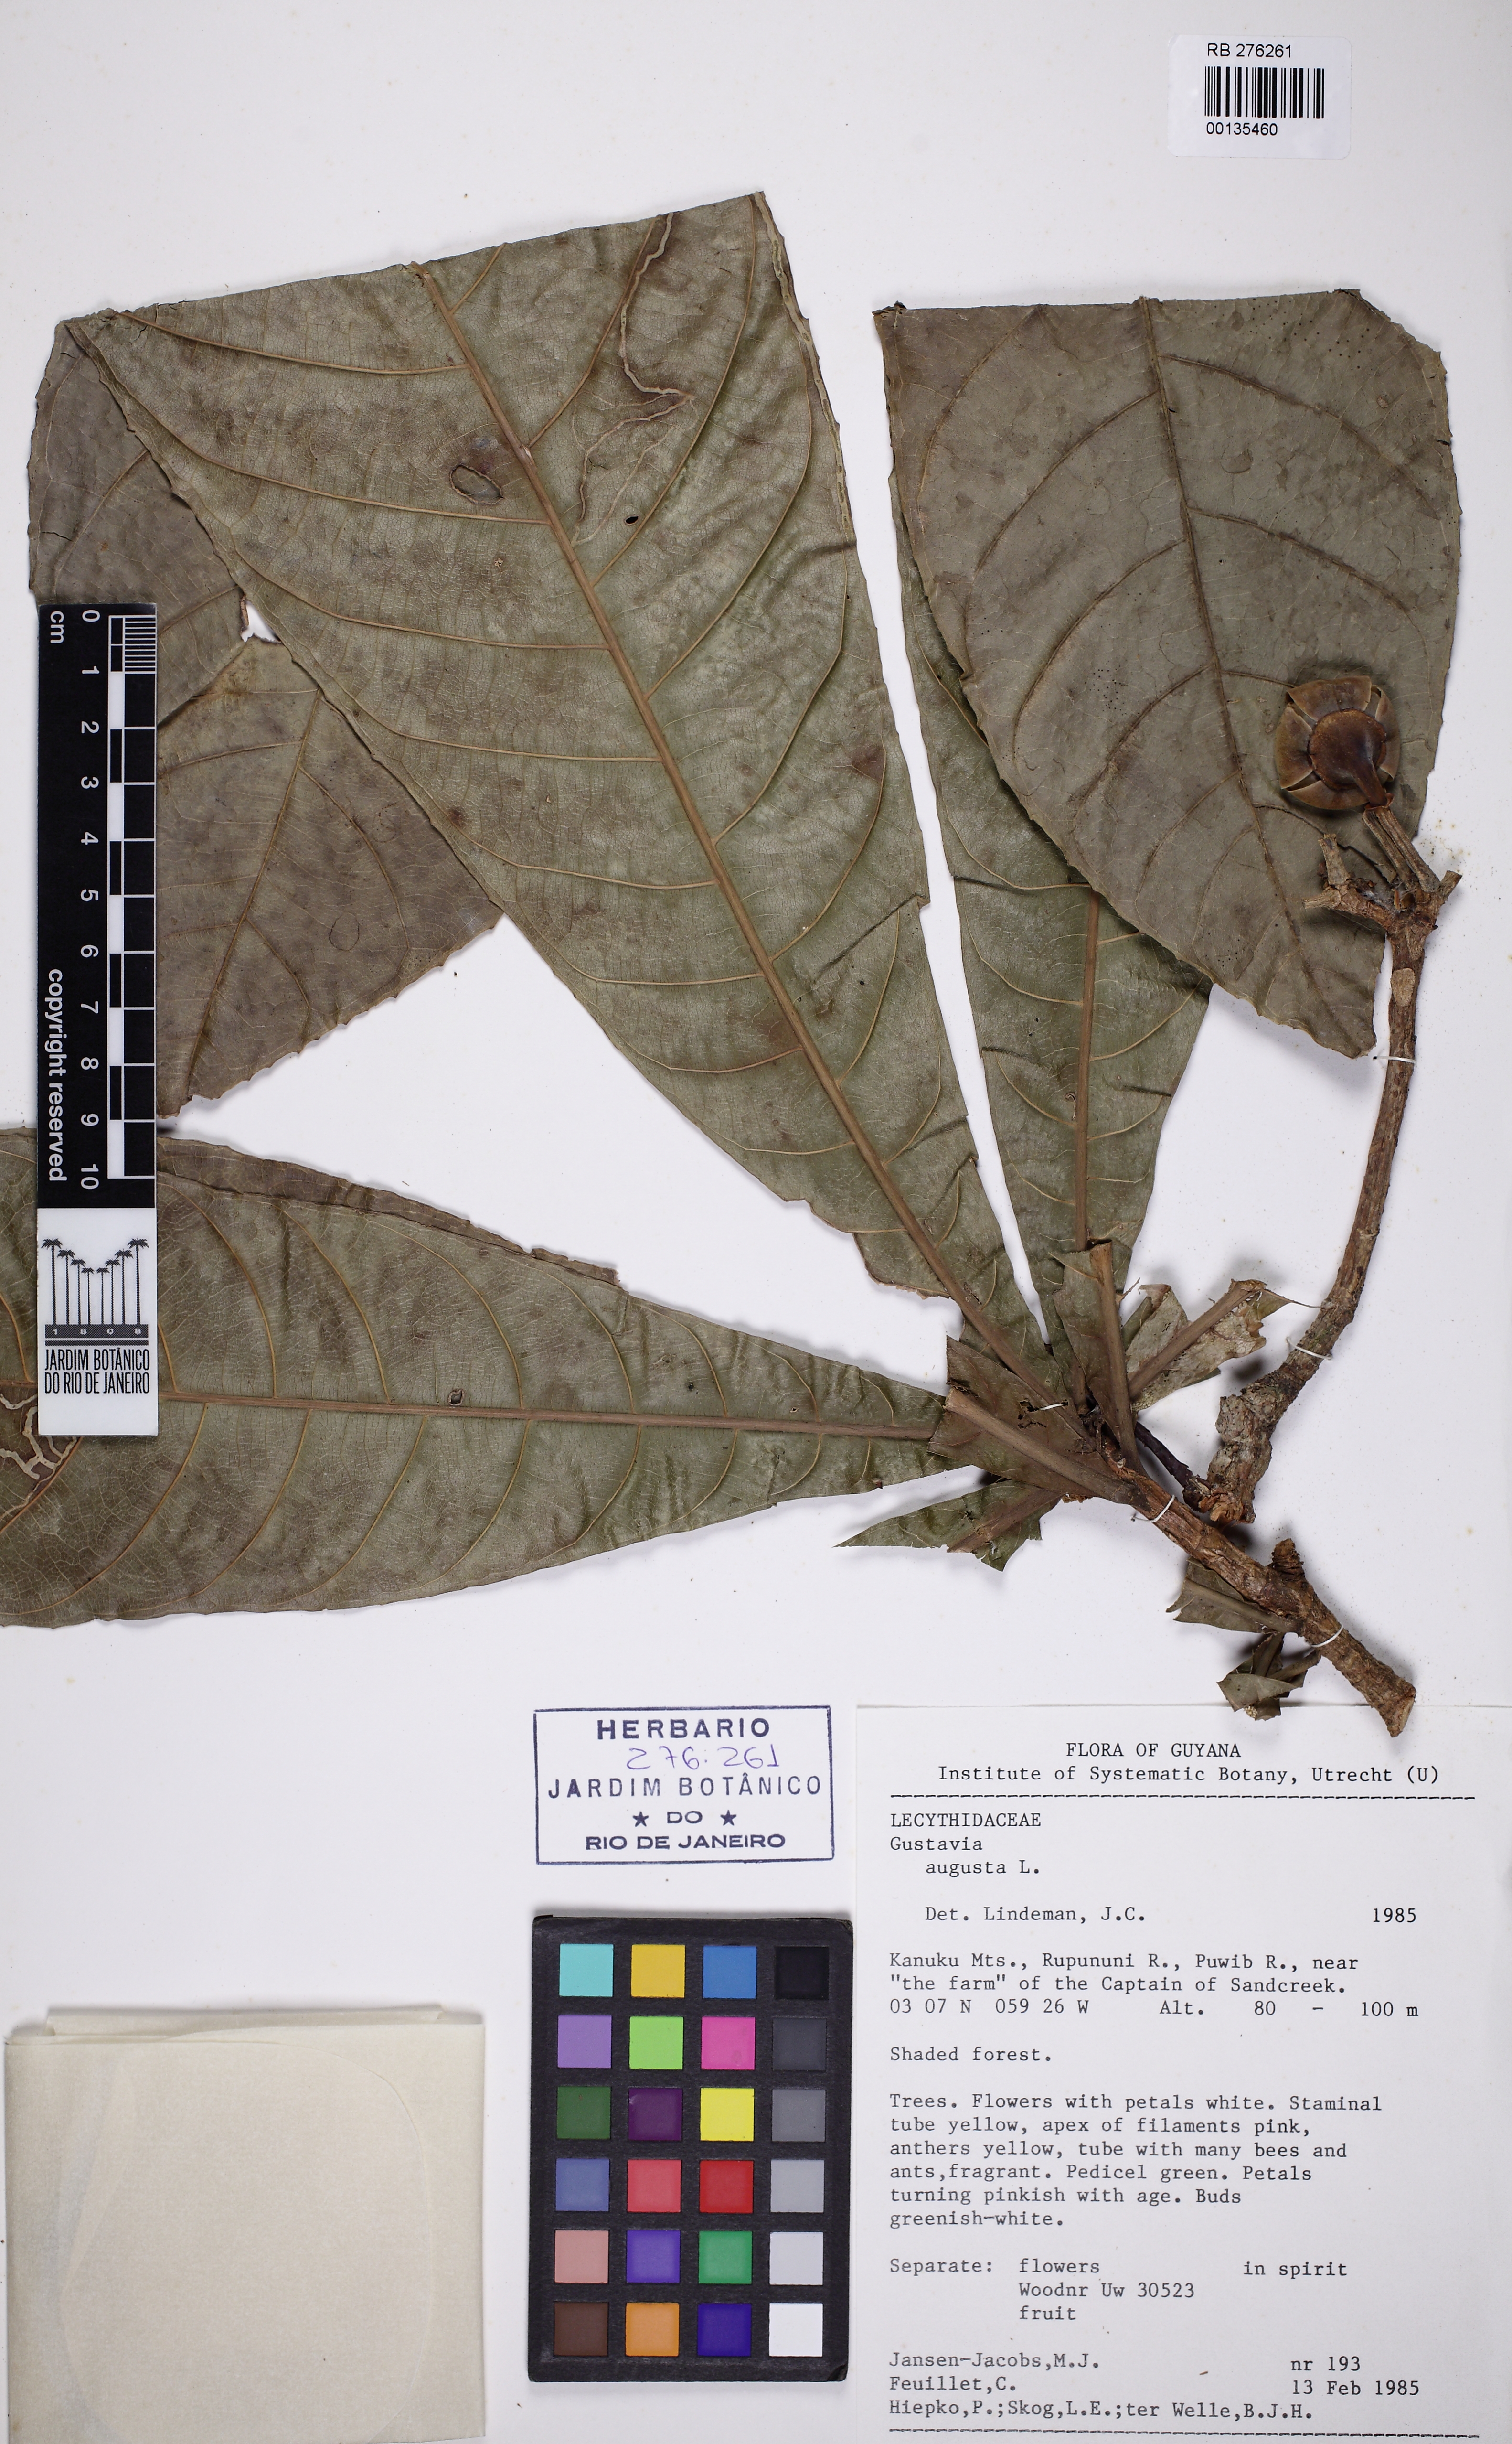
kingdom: Plantae
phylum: Tracheophyta
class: Magnoliopsida
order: Ericales
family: Lecythidaceae
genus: Gustavia
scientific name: Gustavia augusta
